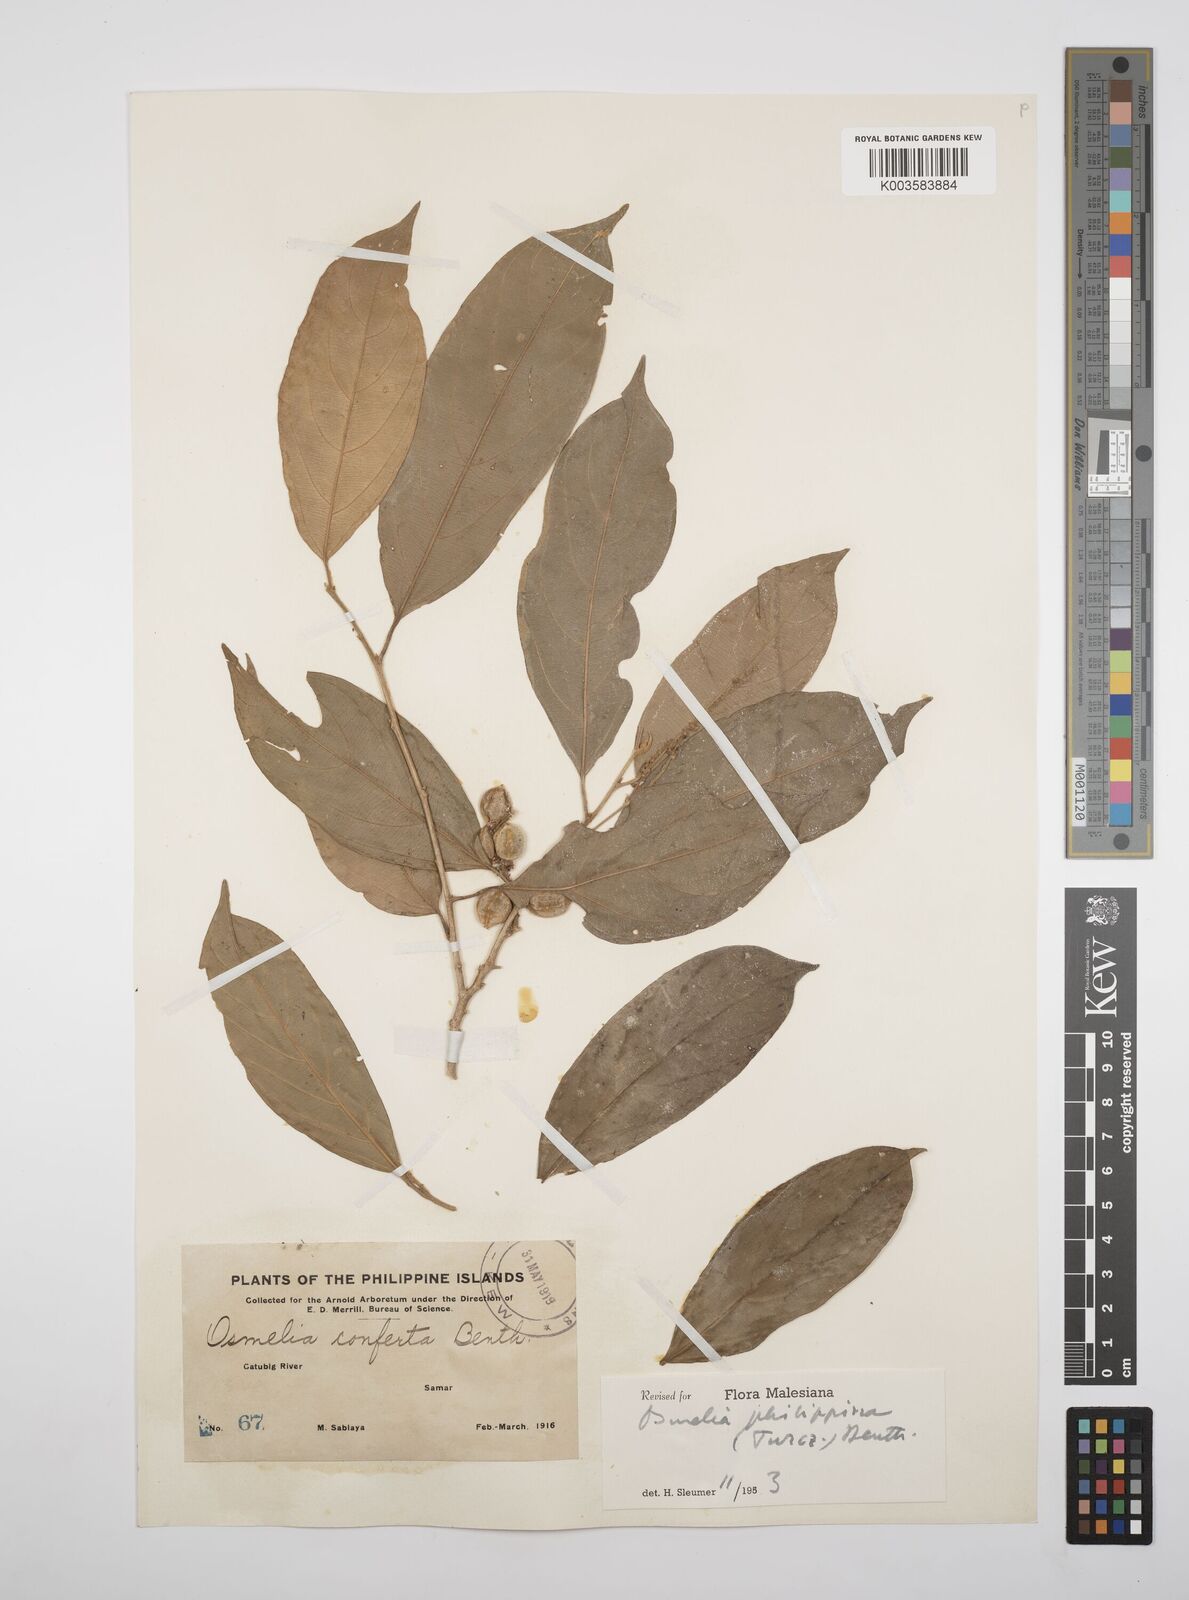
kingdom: Plantae
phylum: Tracheophyta
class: Magnoliopsida
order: Malpighiales
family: Salicaceae
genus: Osmelia
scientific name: Osmelia philippina
